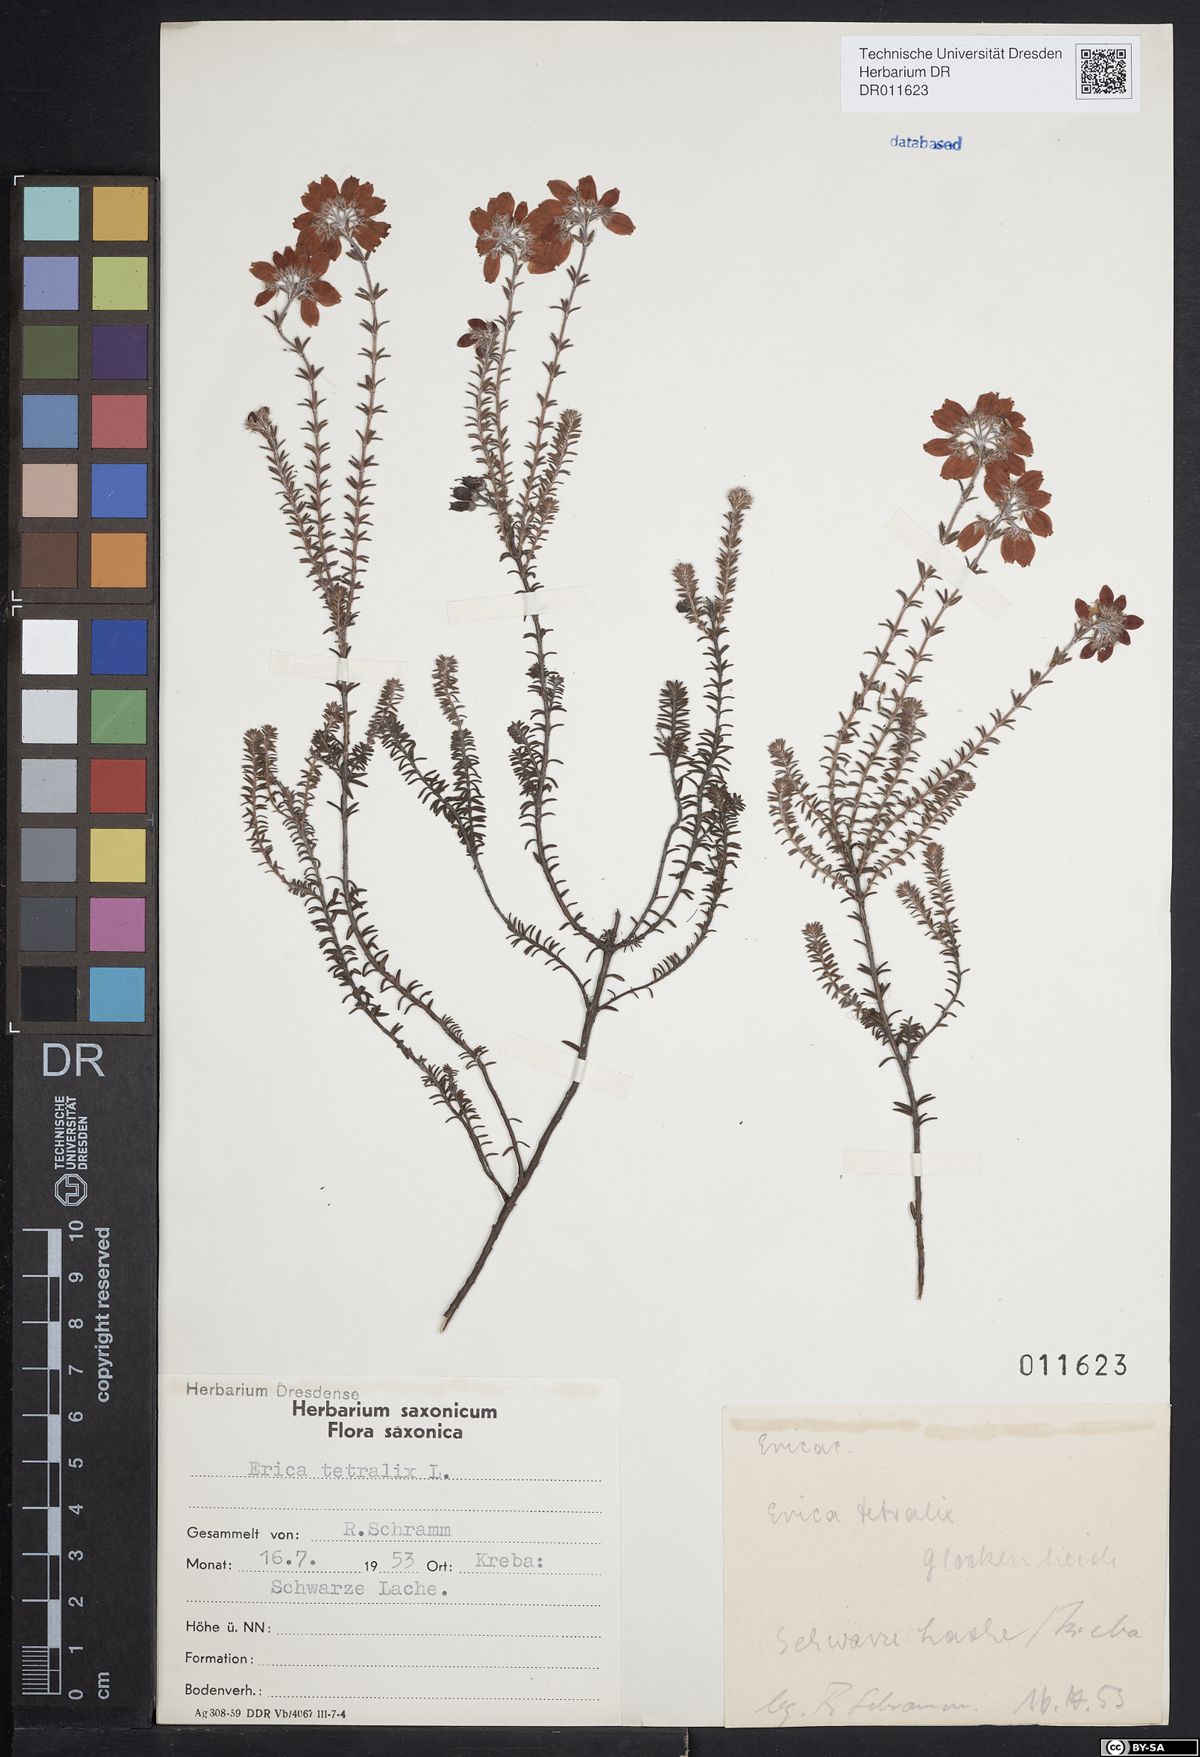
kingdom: Plantae
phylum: Tracheophyta
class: Magnoliopsida
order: Ericales
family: Ericaceae
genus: Erica
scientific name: Erica tetralix
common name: Cross-leaved heath
